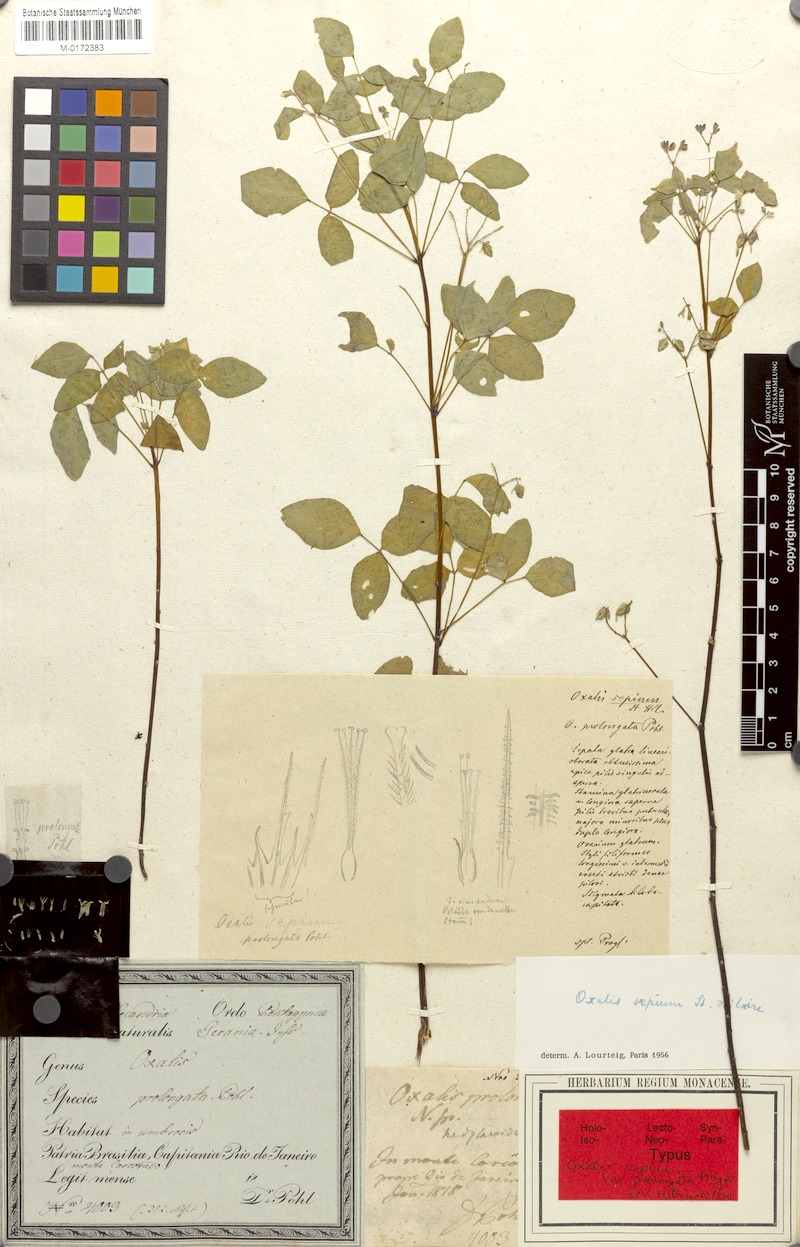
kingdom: Plantae
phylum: Tracheophyta
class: Magnoliopsida
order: Oxalidales
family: Oxalidaceae
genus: Oxalis
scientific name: Oxalis sepium
